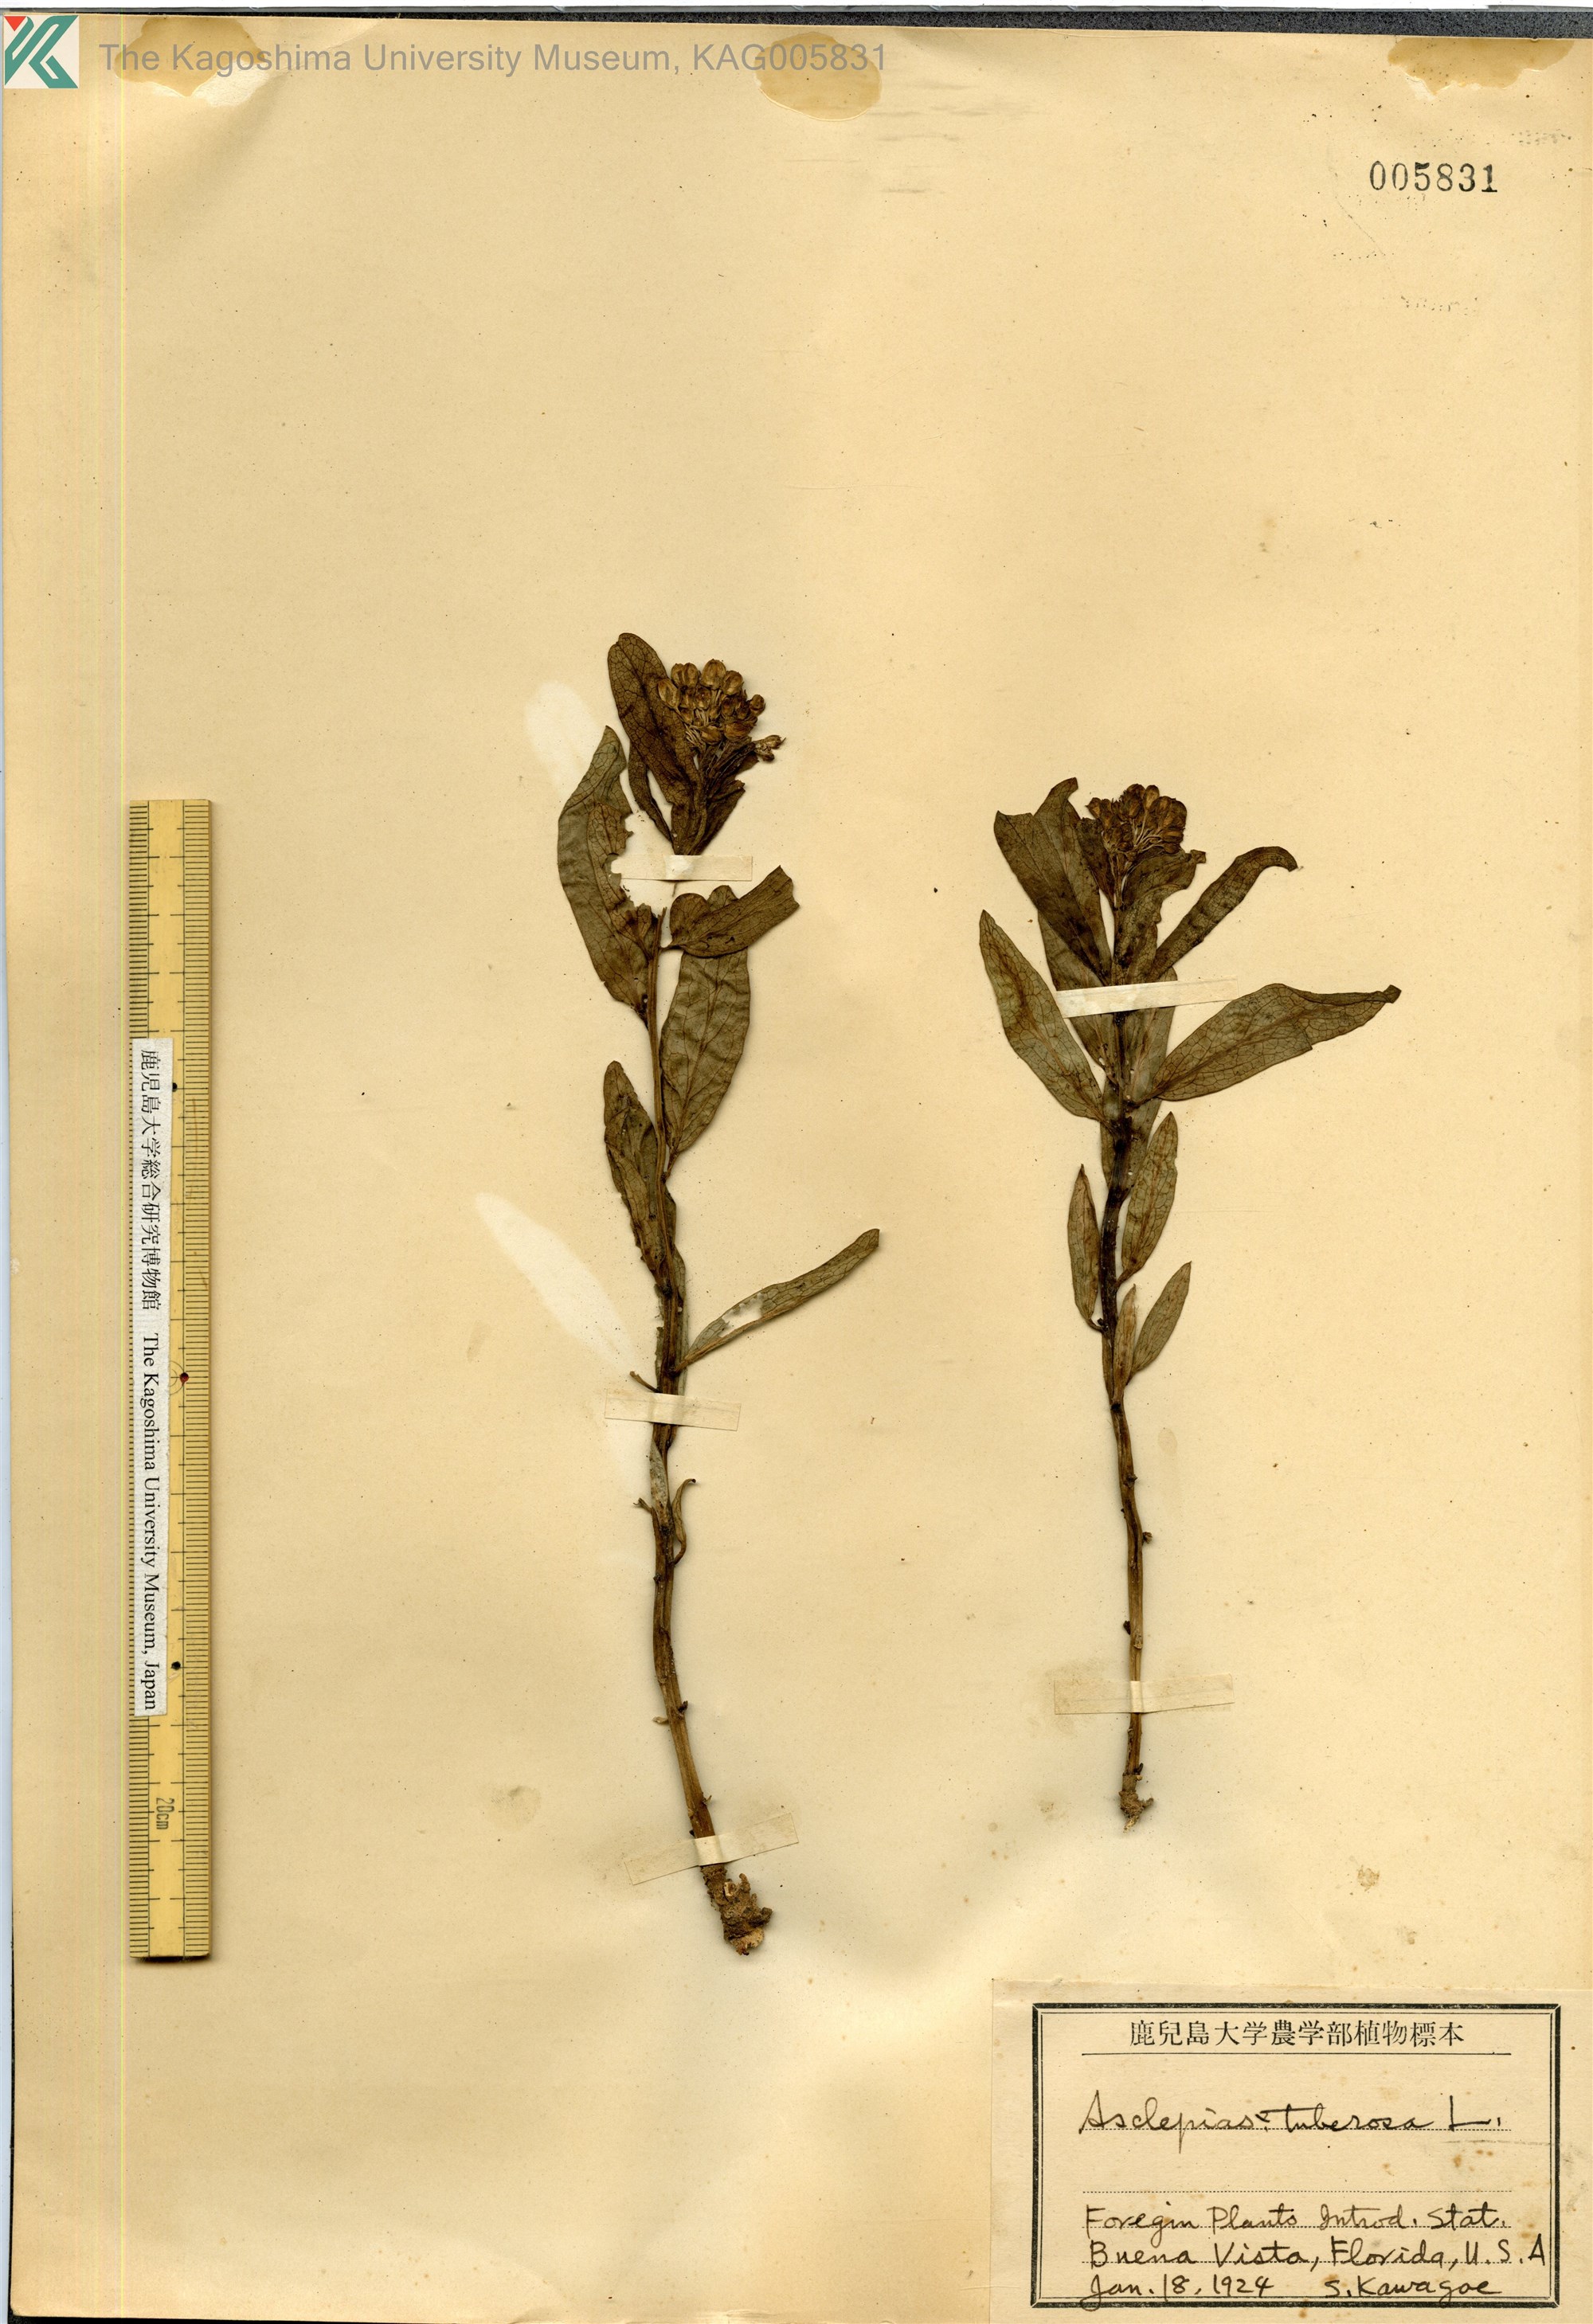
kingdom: Plantae
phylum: Tracheophyta
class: Magnoliopsida
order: Gentianales
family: Apocynaceae
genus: Asclepias
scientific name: Asclepias tuberosa
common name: Butterfly milkweed
